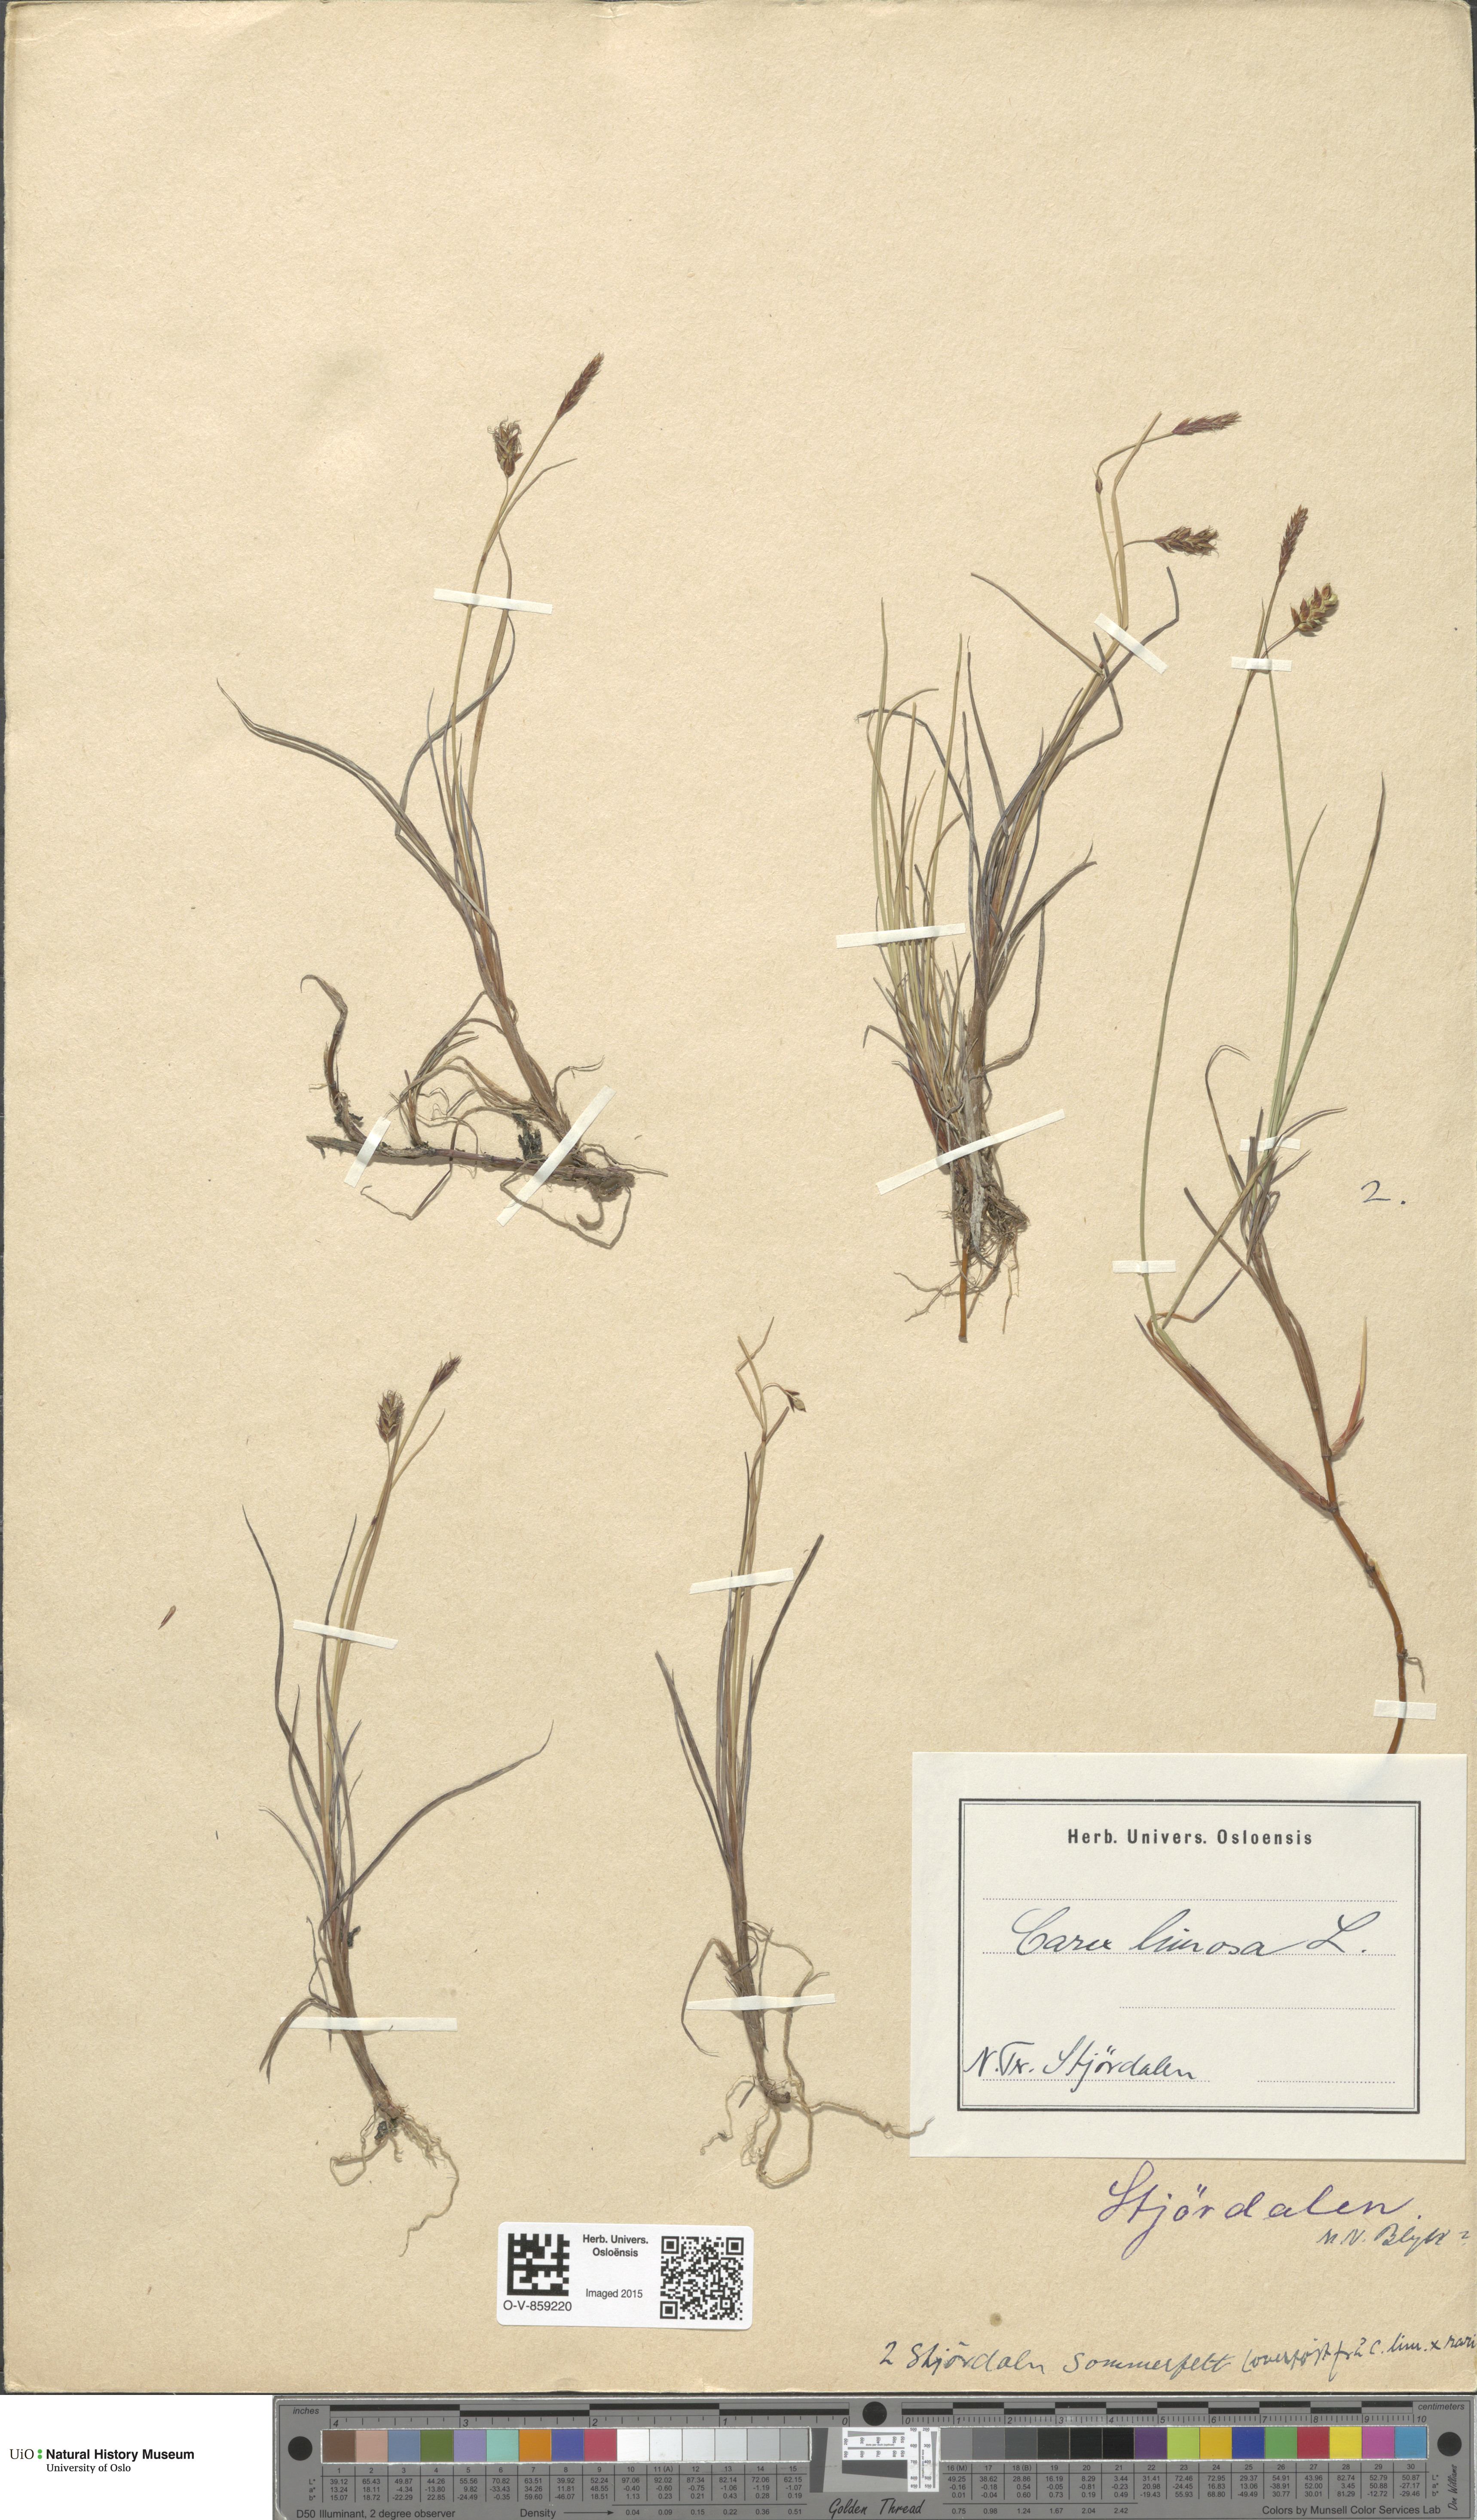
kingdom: Plantae
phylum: Tracheophyta
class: Liliopsida
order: Poales
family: Cyperaceae
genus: Carex
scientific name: Carex limosa
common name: Bog sedge
